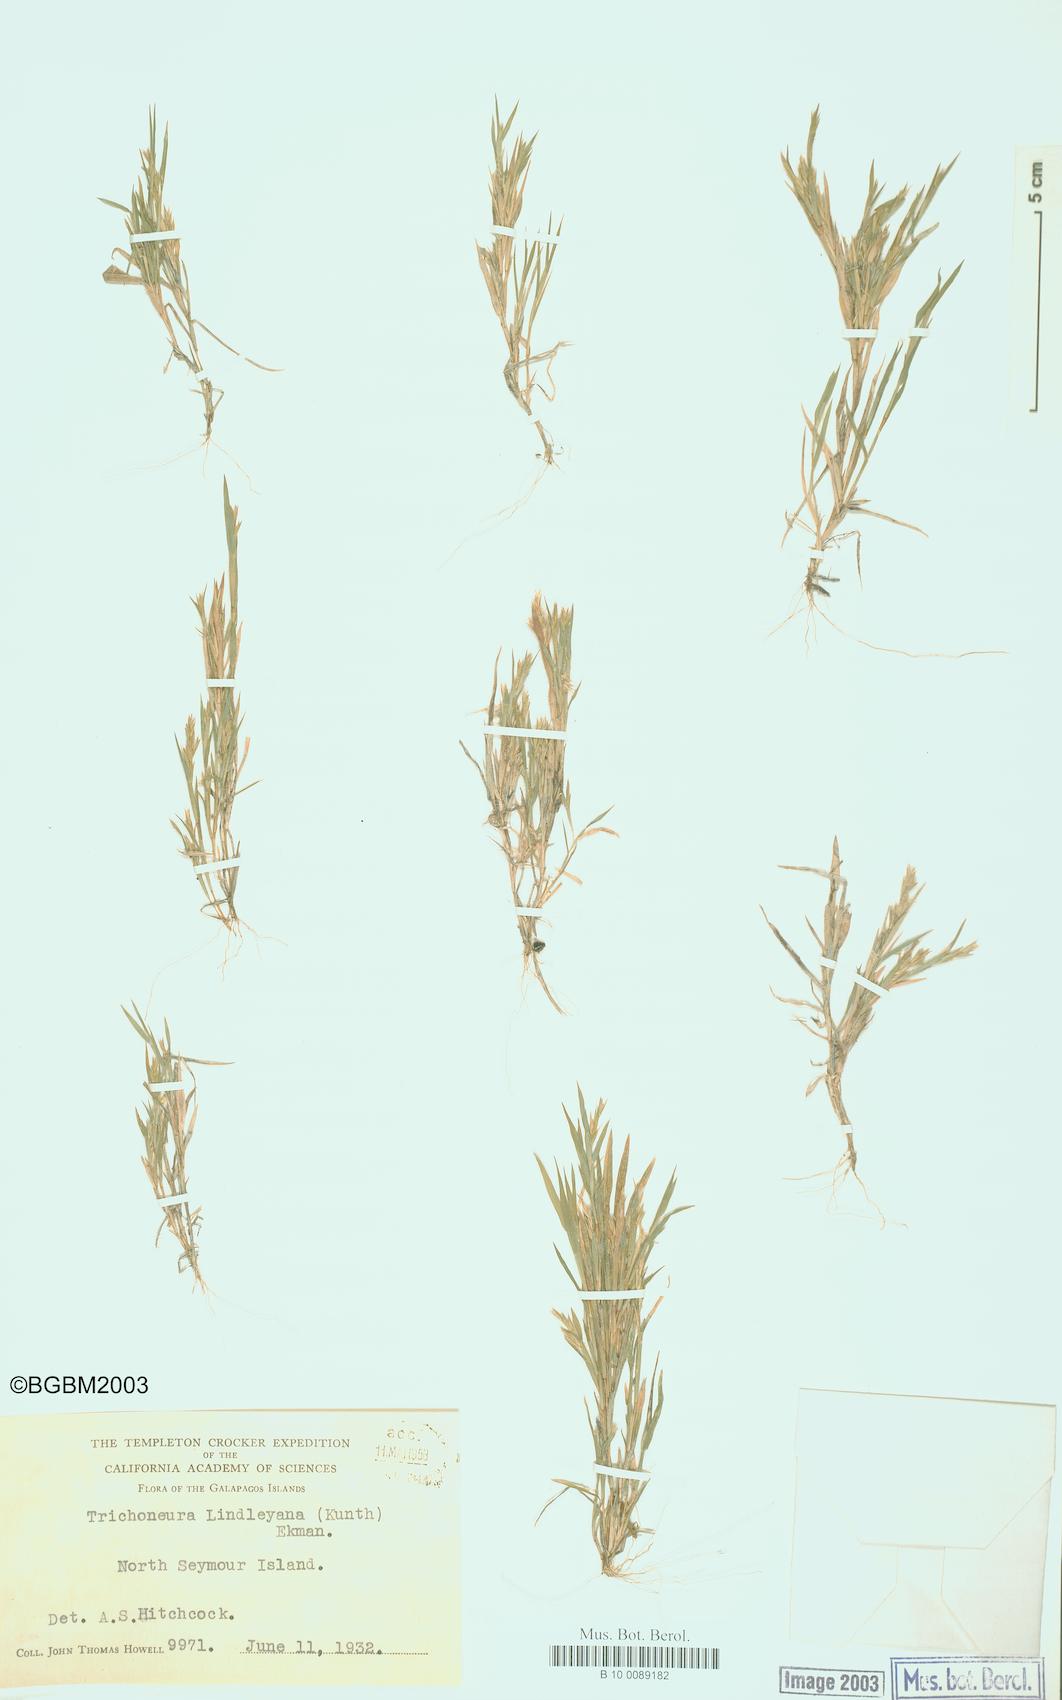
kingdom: Plantae
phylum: Tracheophyta
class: Liliopsida
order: Poales
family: Poaceae
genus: Trichoneura
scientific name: Trichoneura lindleyana
